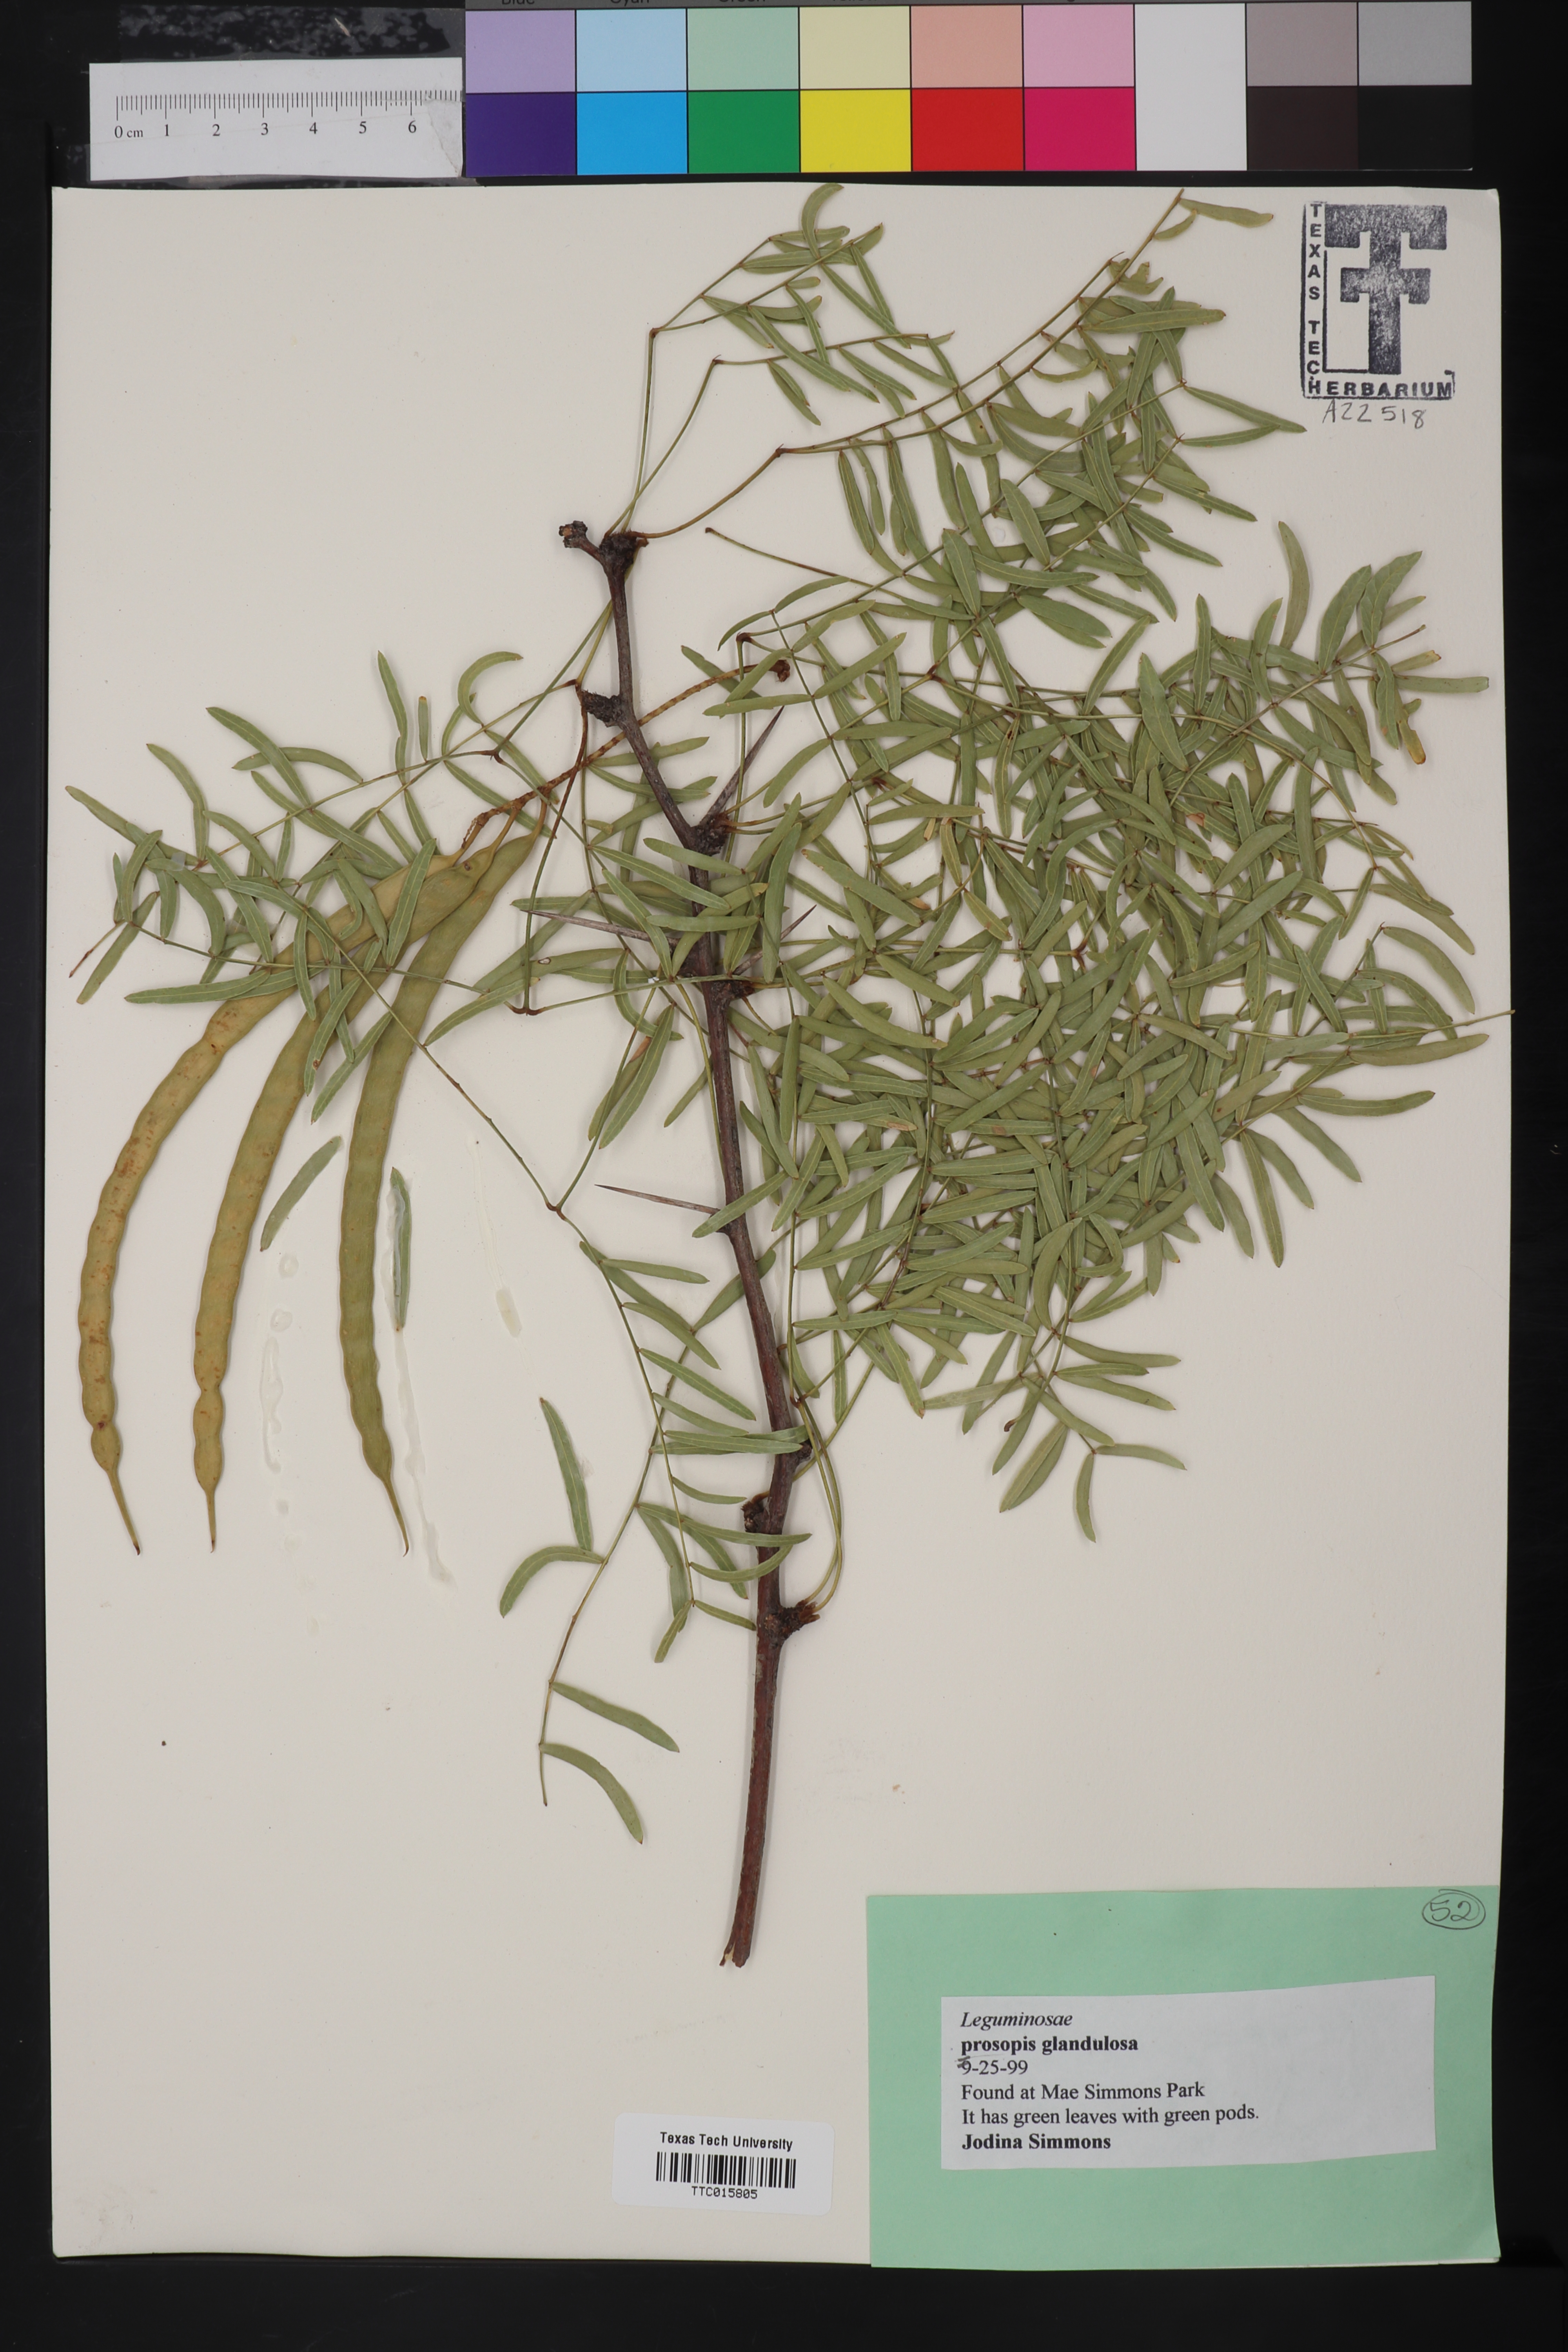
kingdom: Plantae
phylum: Tracheophyta
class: Magnoliopsida
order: Fabales
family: Fabaceae
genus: Prosopis
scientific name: Prosopis glandulosa
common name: Honey mesquite
